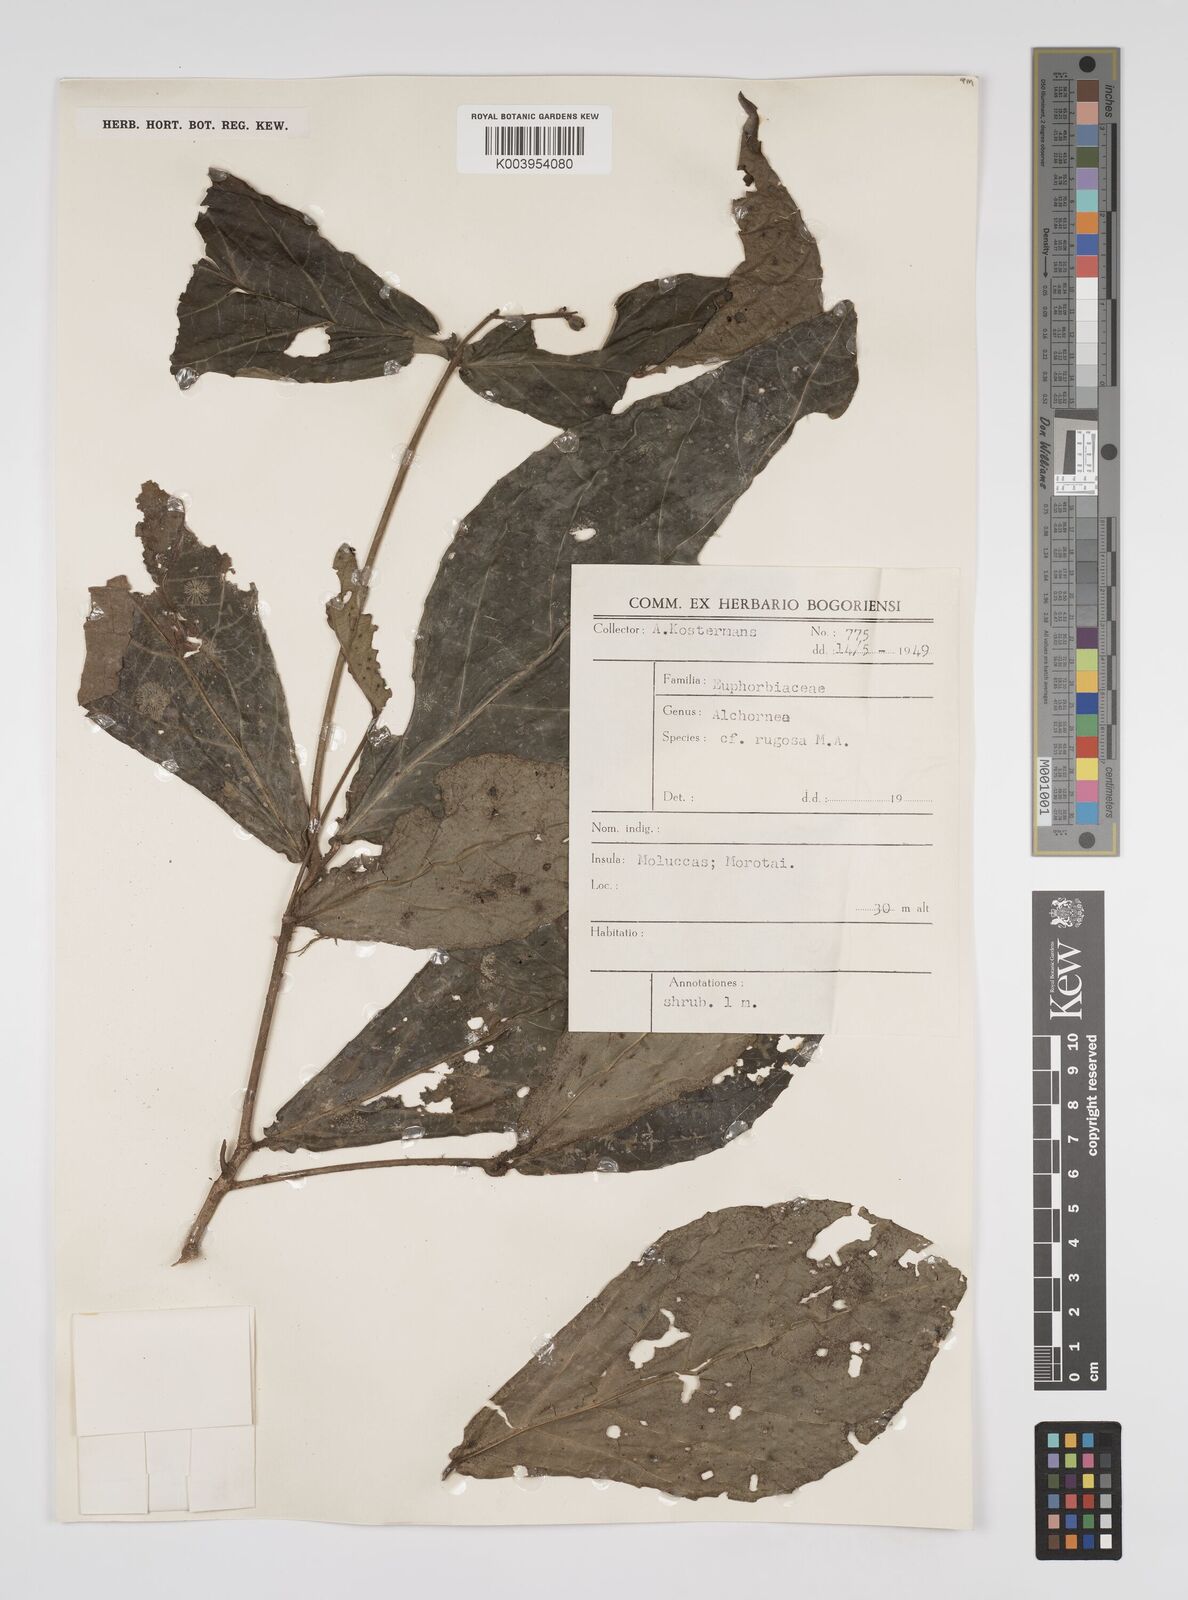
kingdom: Plantae
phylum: Tracheophyta
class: Magnoliopsida
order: Malpighiales
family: Euphorbiaceae
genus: Alchornea
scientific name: Alchornea rugosa
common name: Alchorntree
